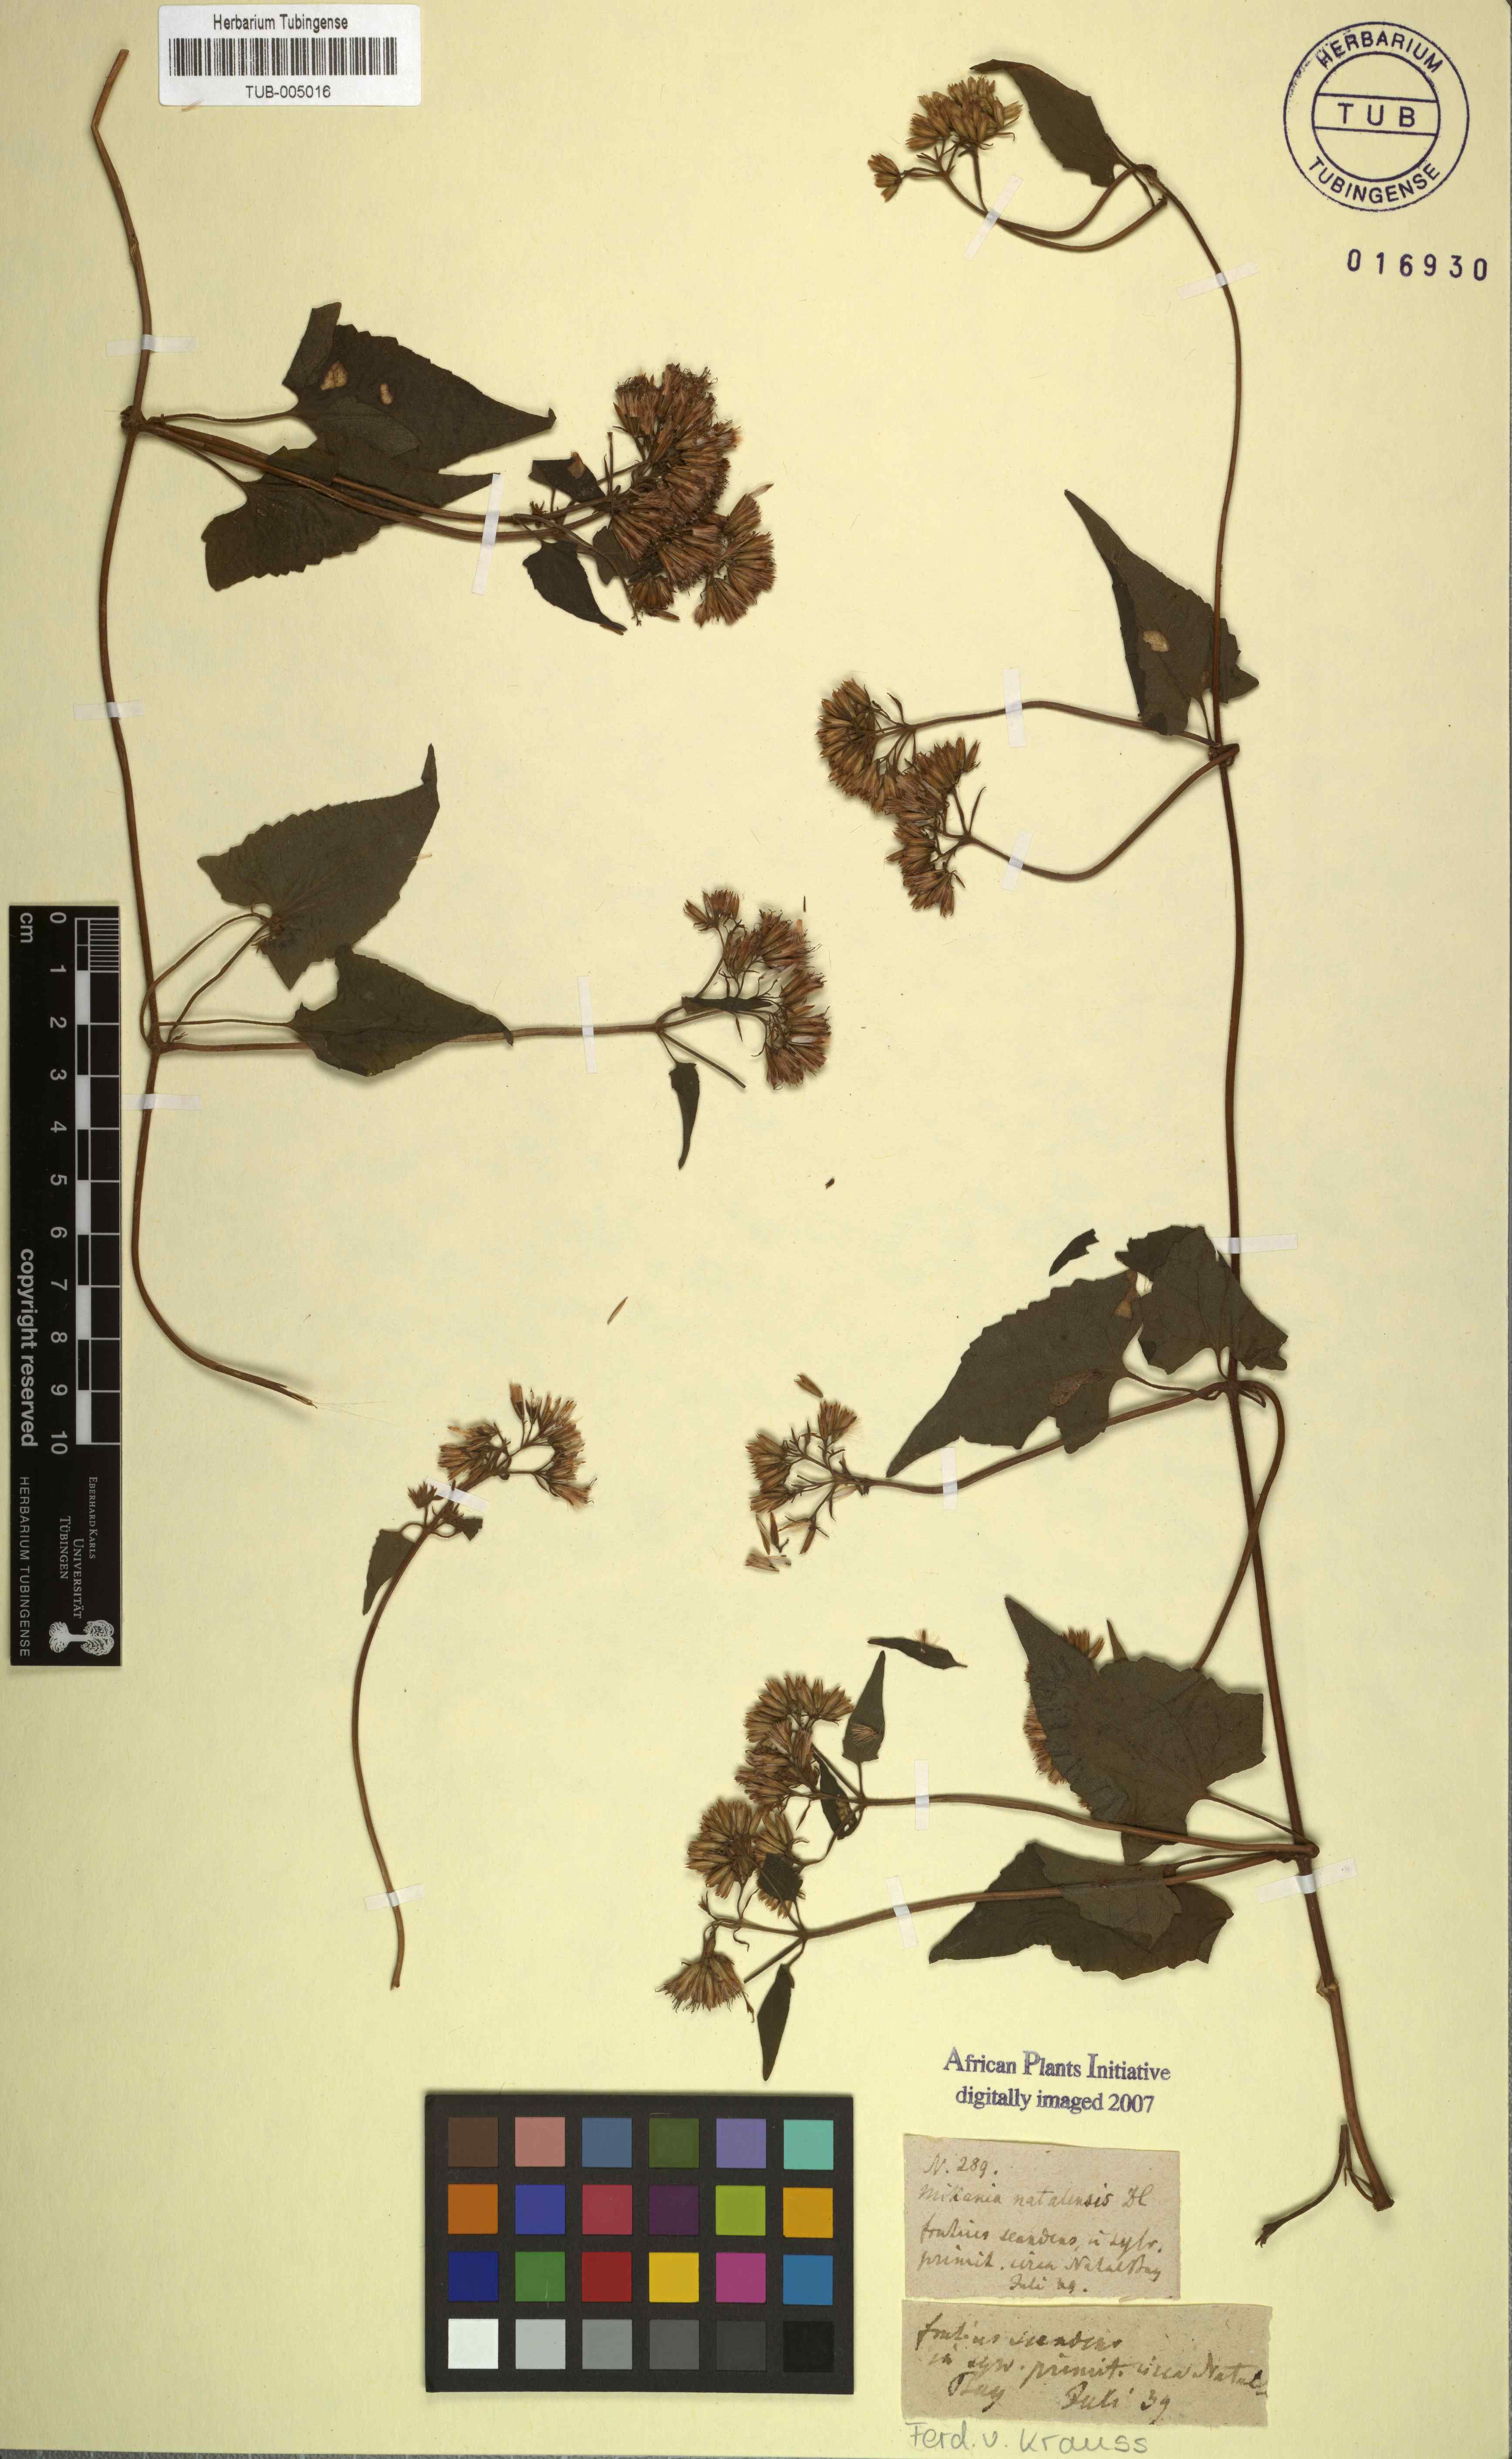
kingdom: Plantae
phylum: Tracheophyta
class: Magnoliopsida
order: Asterales
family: Asteraceae
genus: Mikania
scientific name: Mikania natalensis
